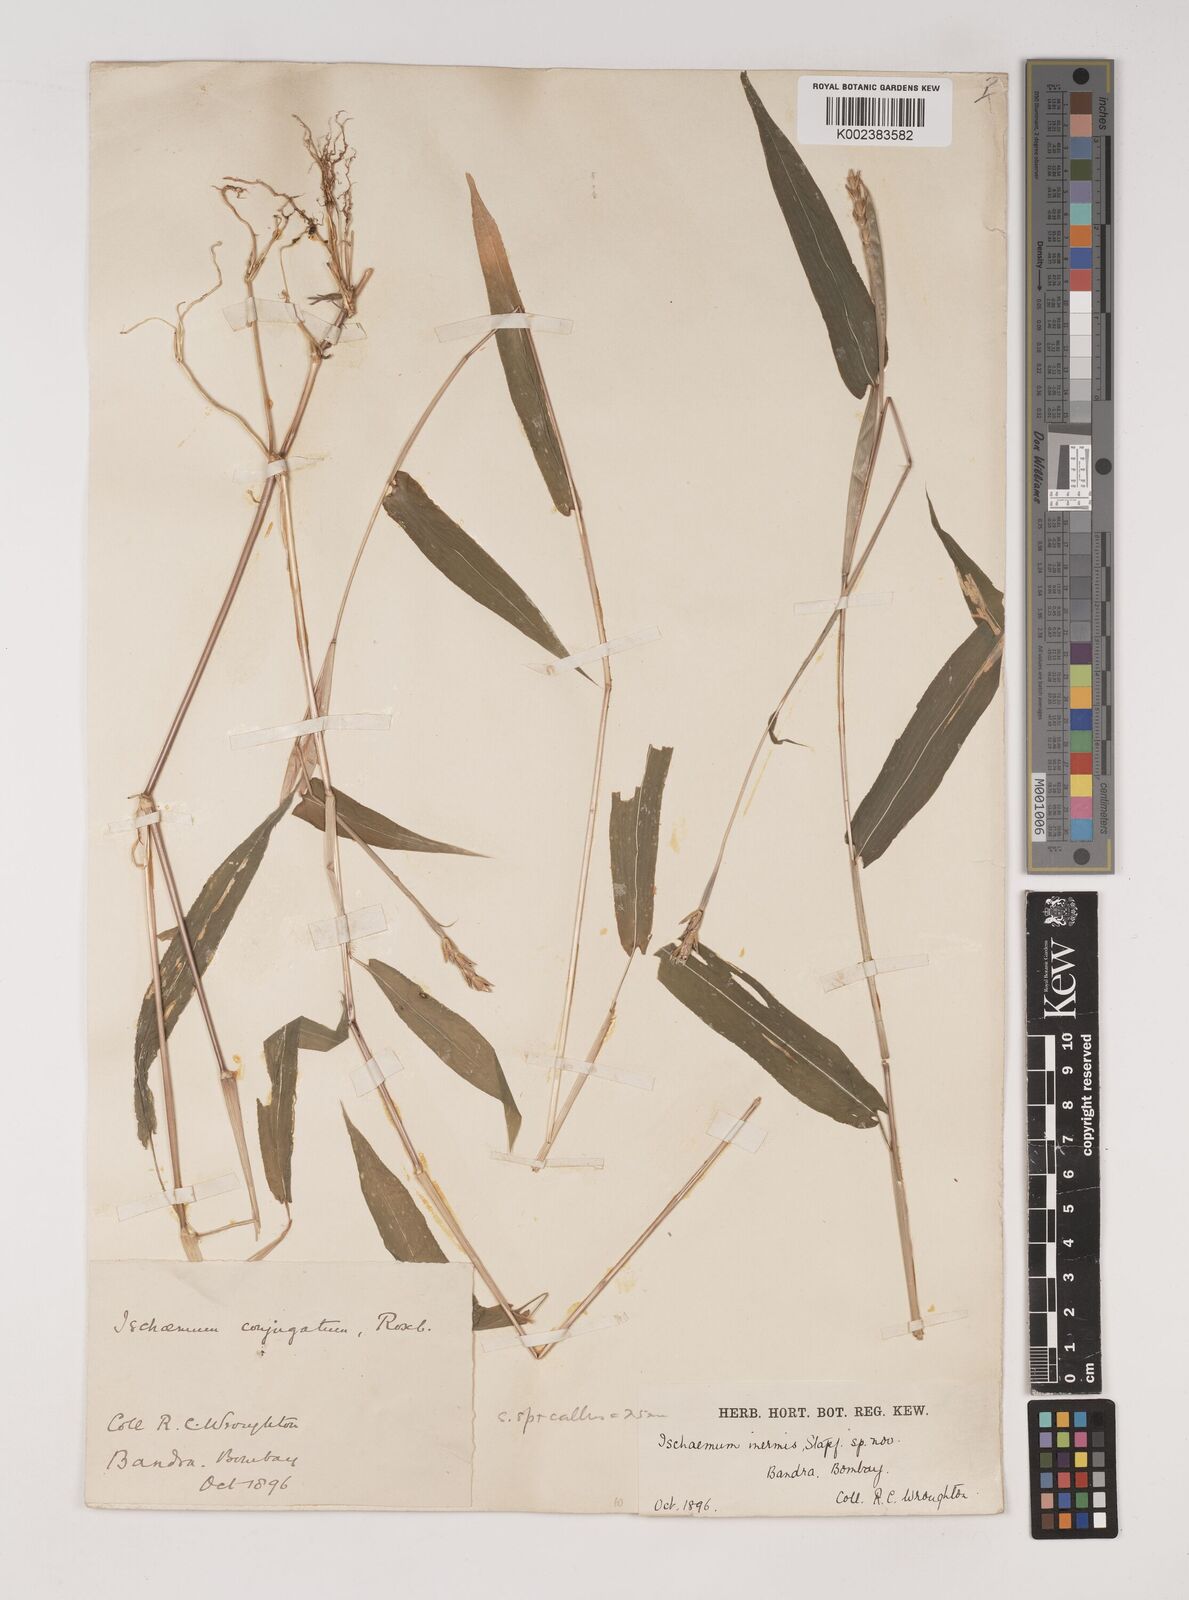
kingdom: Plantae
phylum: Tracheophyta
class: Liliopsida
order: Poales
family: Poaceae
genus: Ischaemum
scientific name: Ischaemum huegelii
